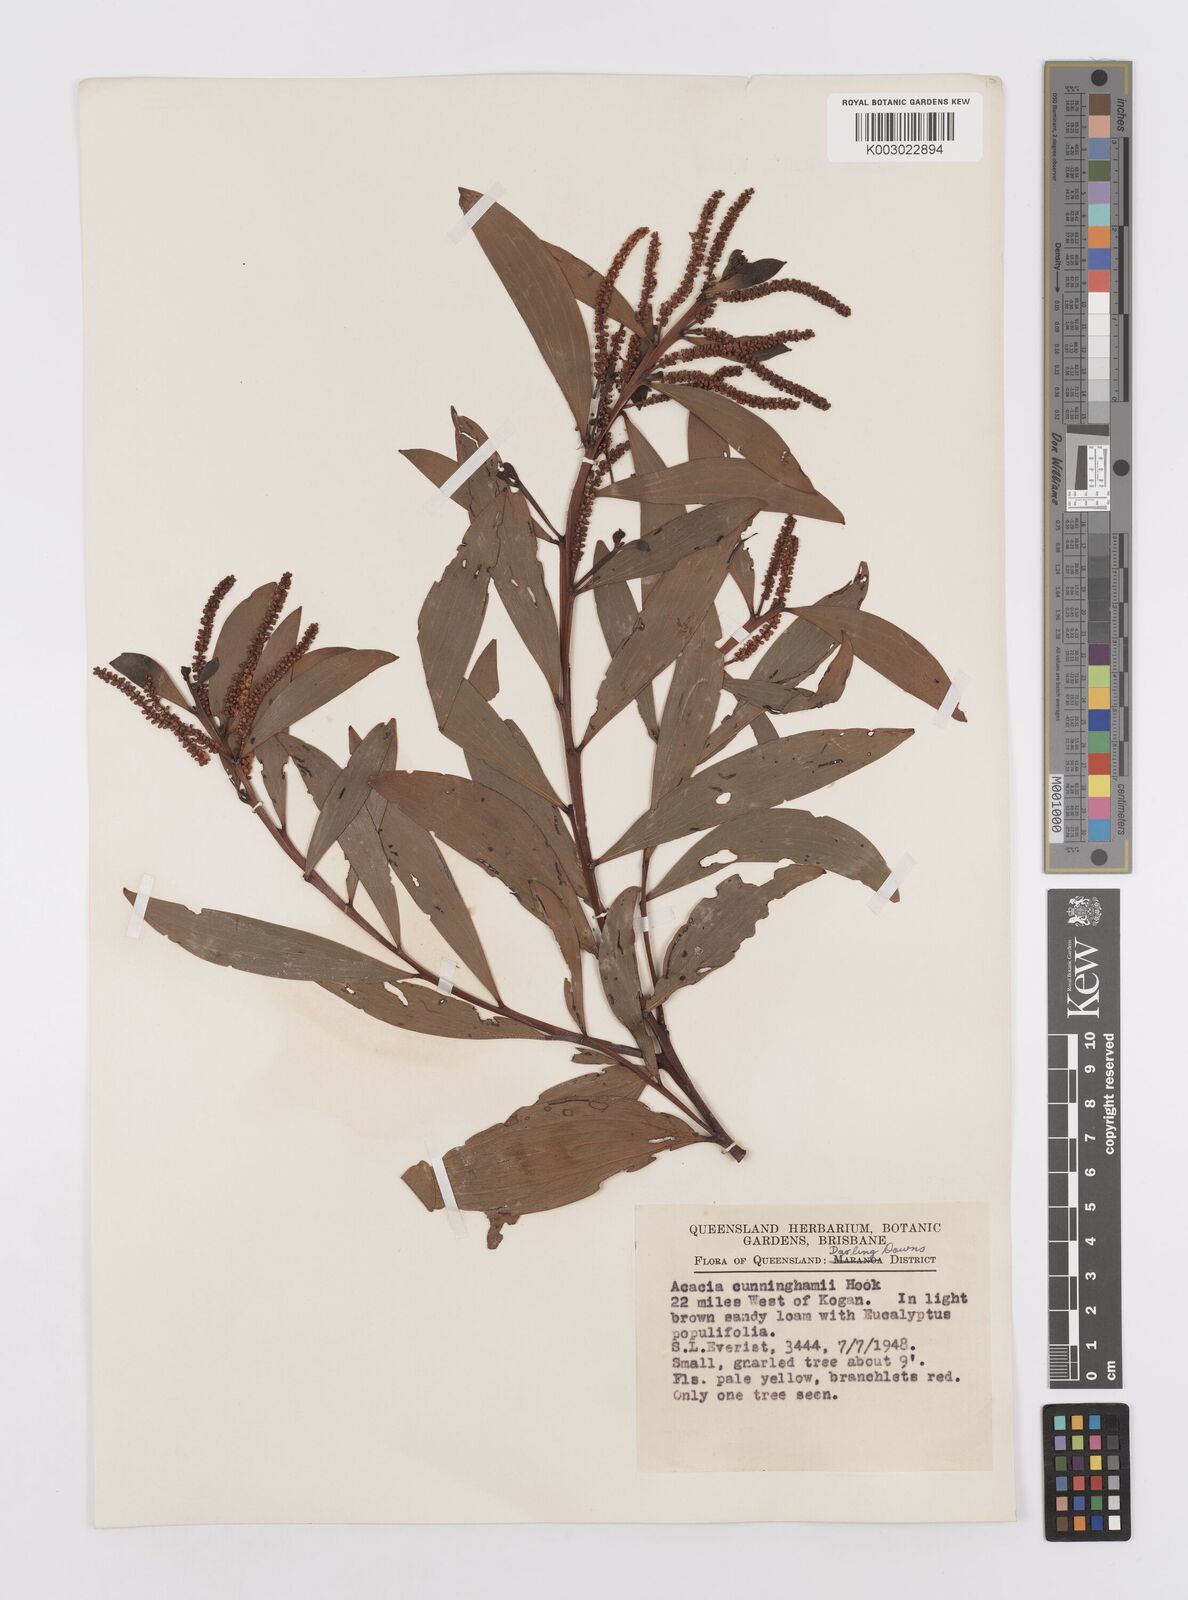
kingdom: Plantae
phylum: Tracheophyta
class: Magnoliopsida
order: Fabales
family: Fabaceae
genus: Acacia
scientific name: Acacia longispicata
